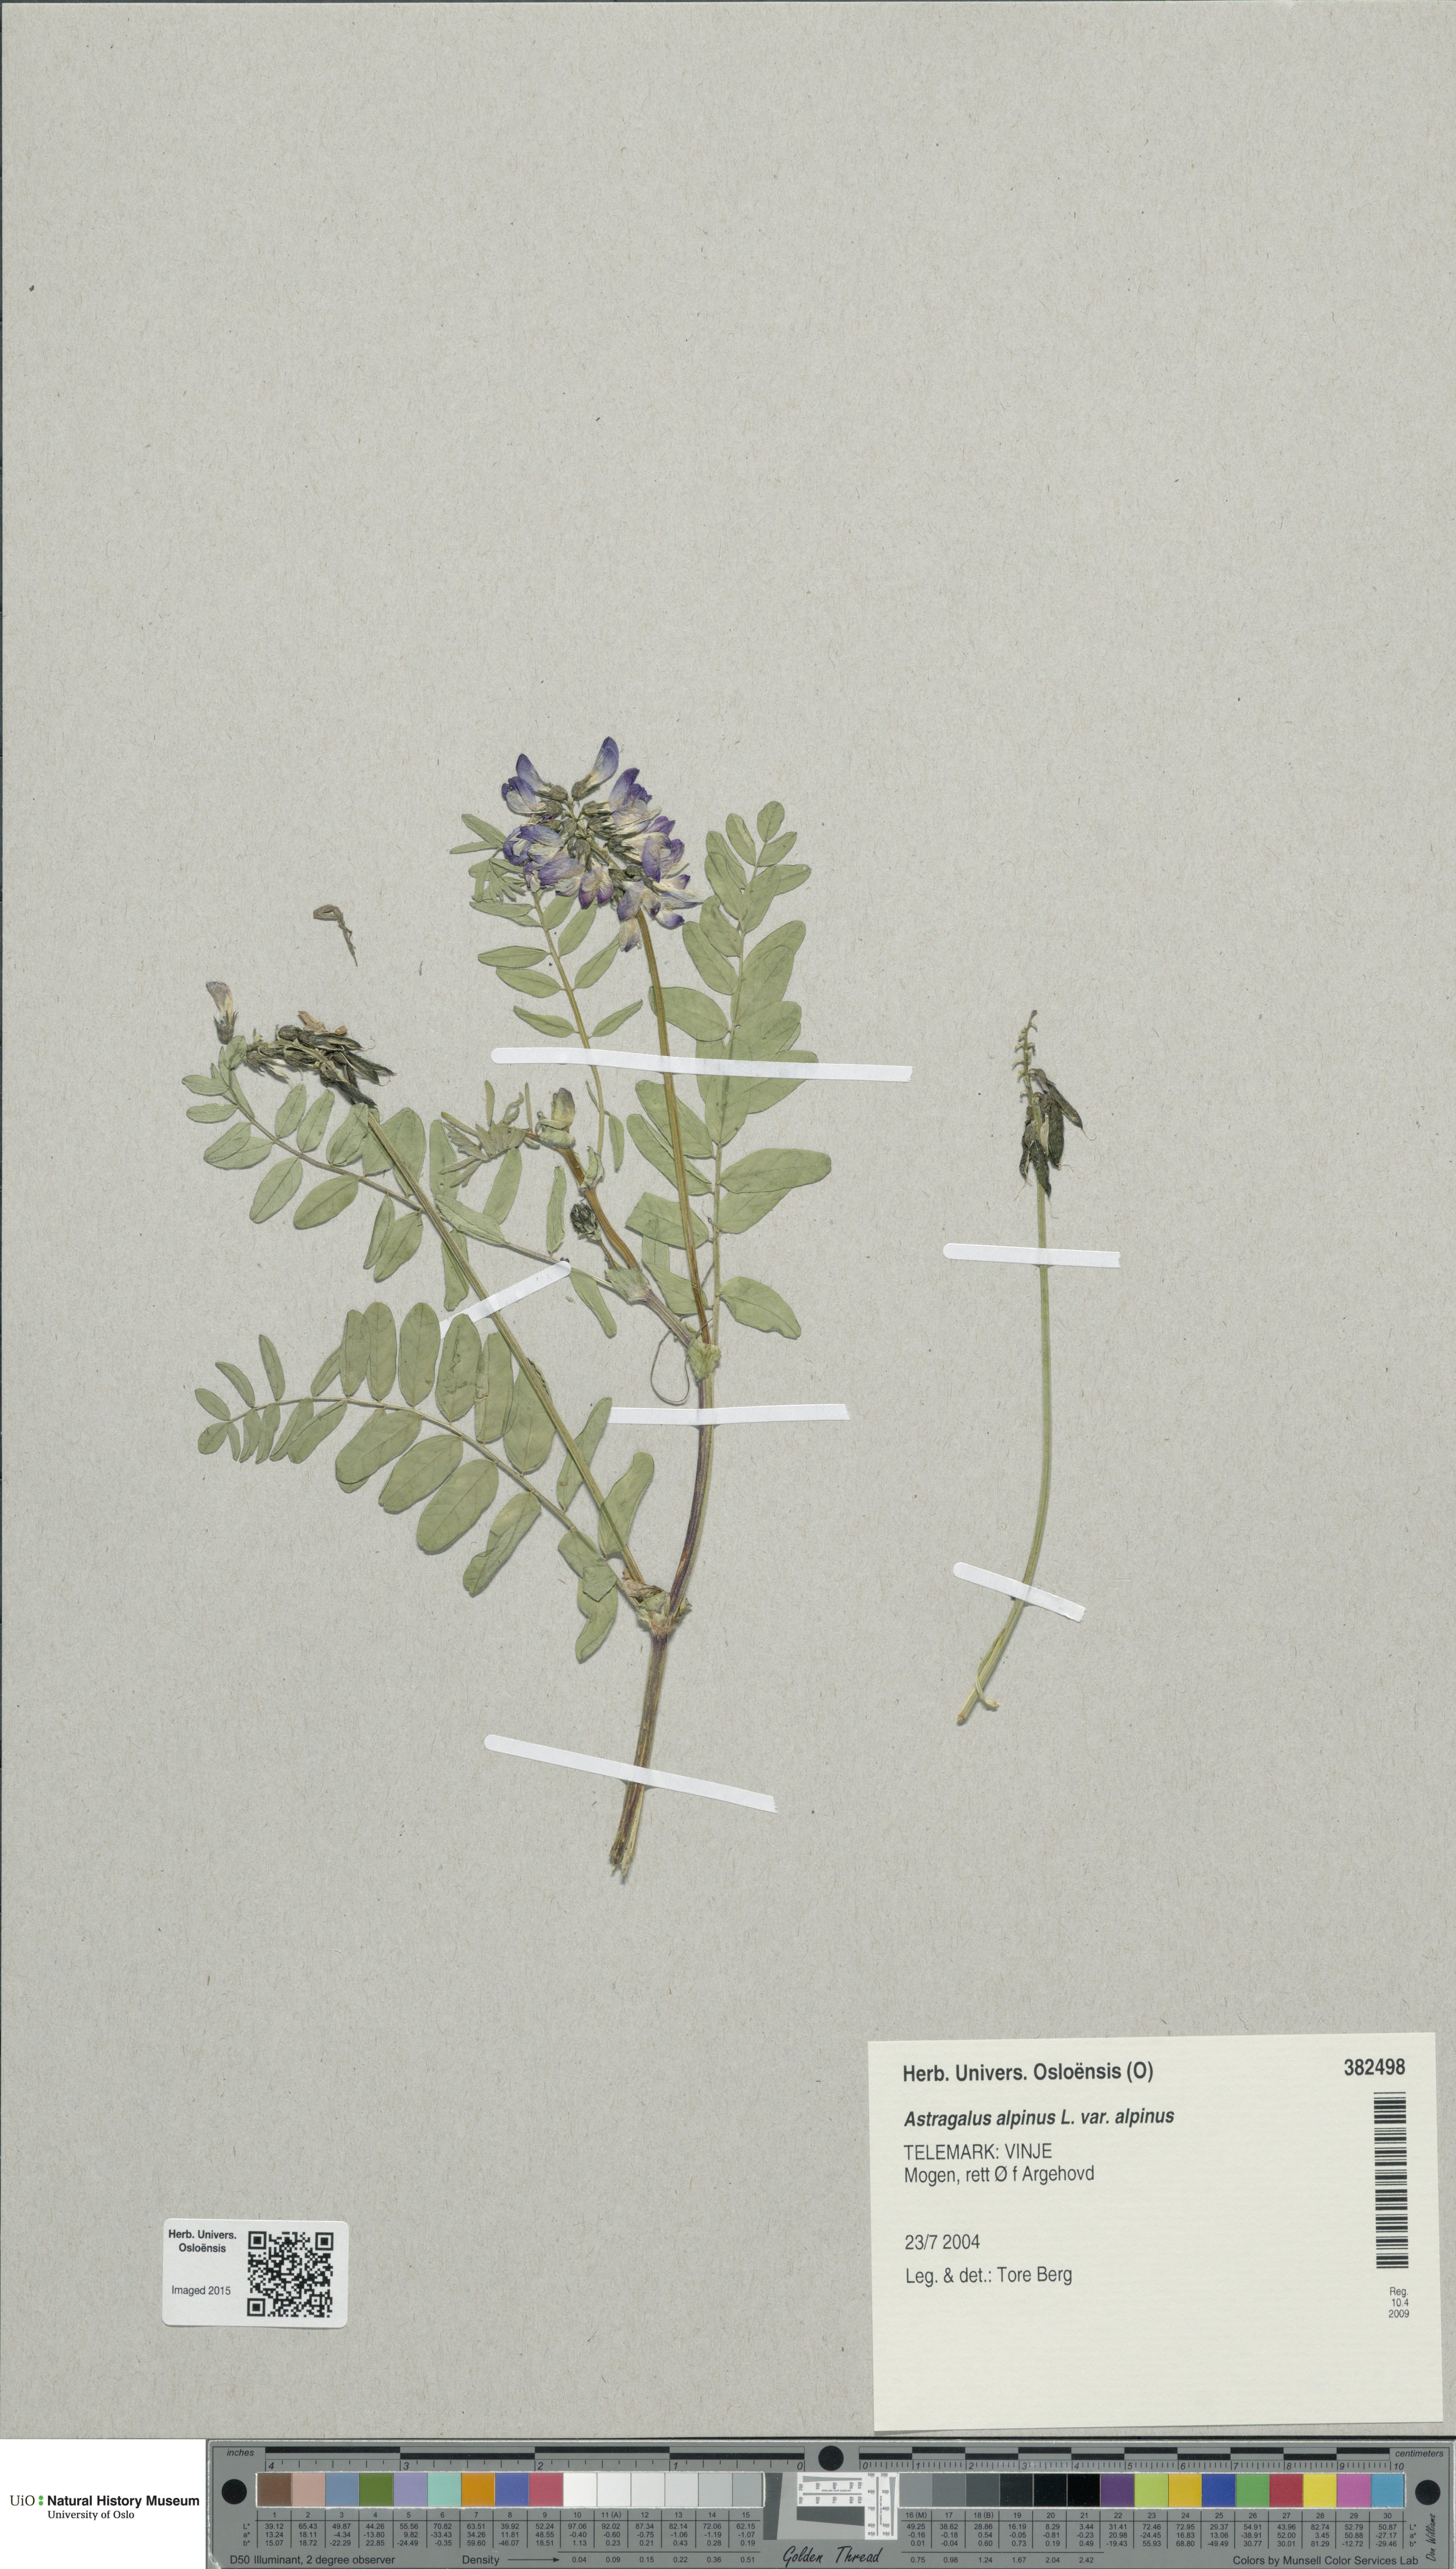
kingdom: Plantae
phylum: Tracheophyta
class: Magnoliopsida
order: Fabales
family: Fabaceae
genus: Astragalus
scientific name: Astragalus alpinus
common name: Alpine milk-vetch
